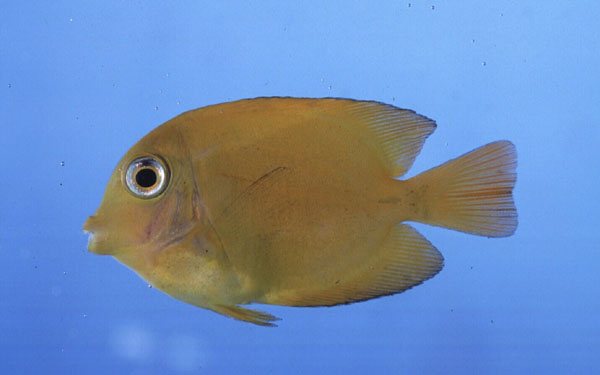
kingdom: Animalia
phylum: Chordata
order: Perciformes
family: Acanthuridae
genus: Ctenochaetus
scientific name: Ctenochaetus truncatus
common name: Indian gold-ring bristle-tooth
